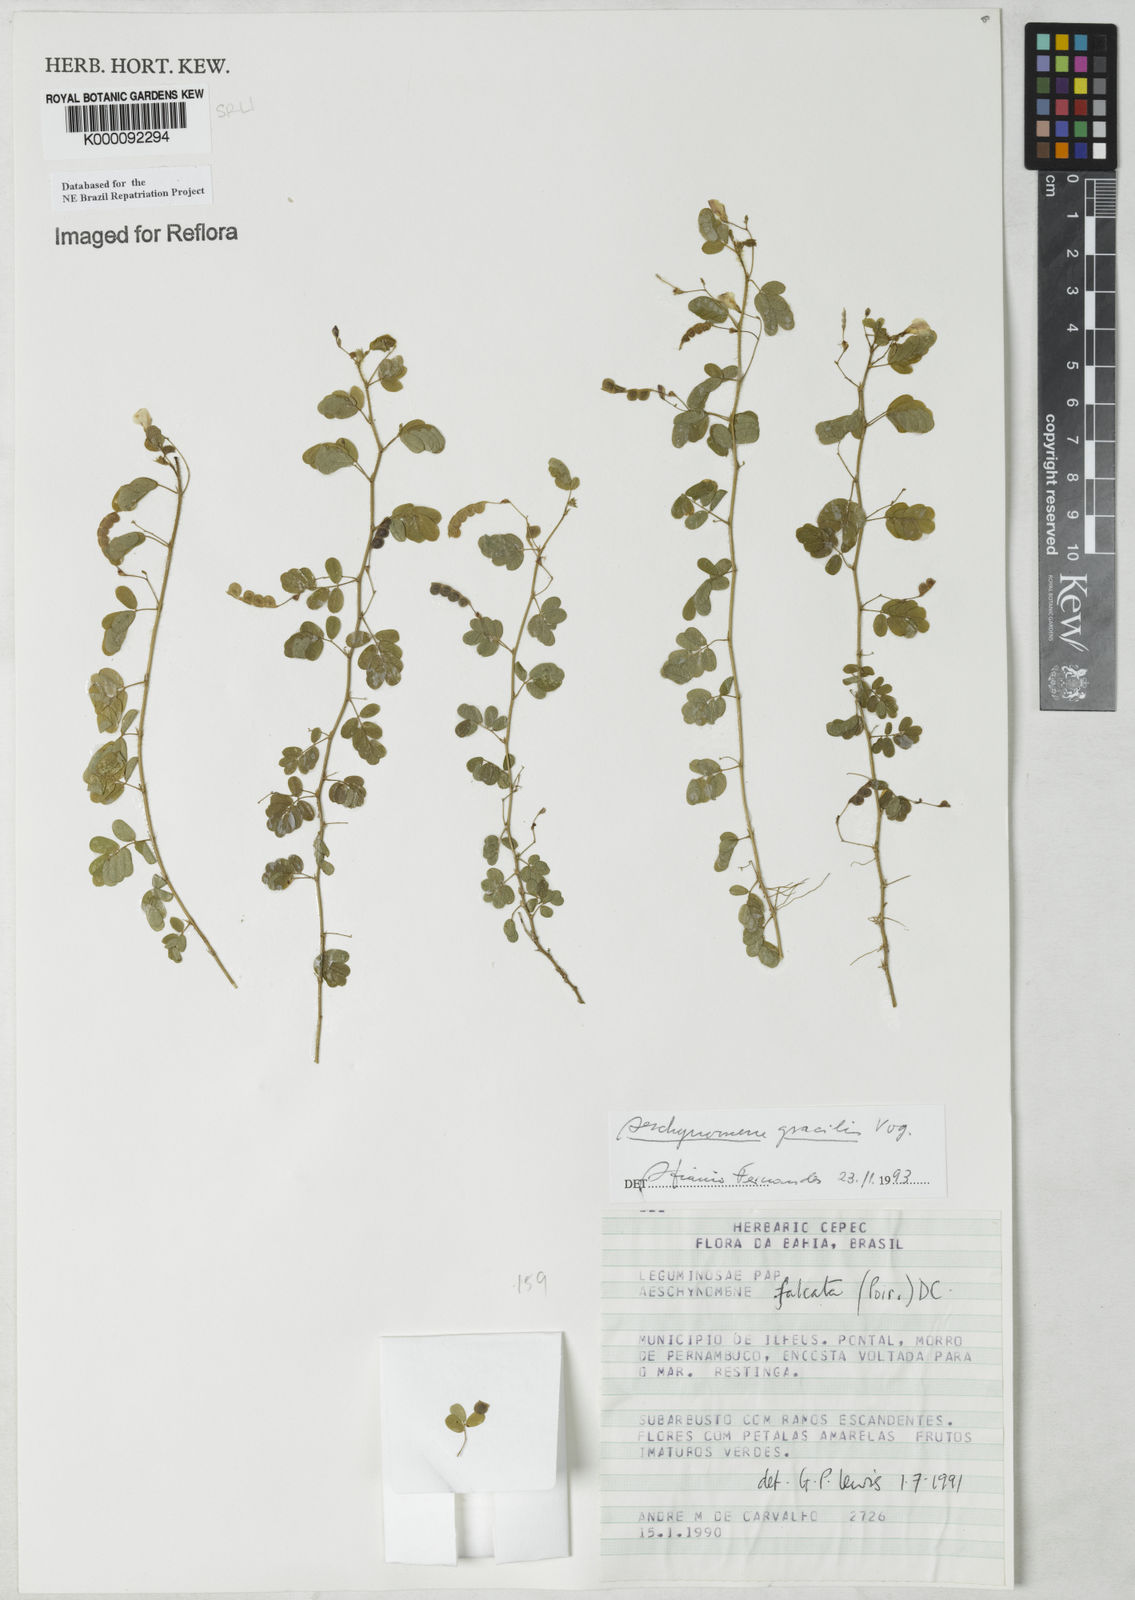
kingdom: Plantae
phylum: Tracheophyta
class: Magnoliopsida
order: Fabales
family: Fabaceae
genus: Ctenodon
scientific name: Ctenodon gracilis
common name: Puerto rico jointvetch
